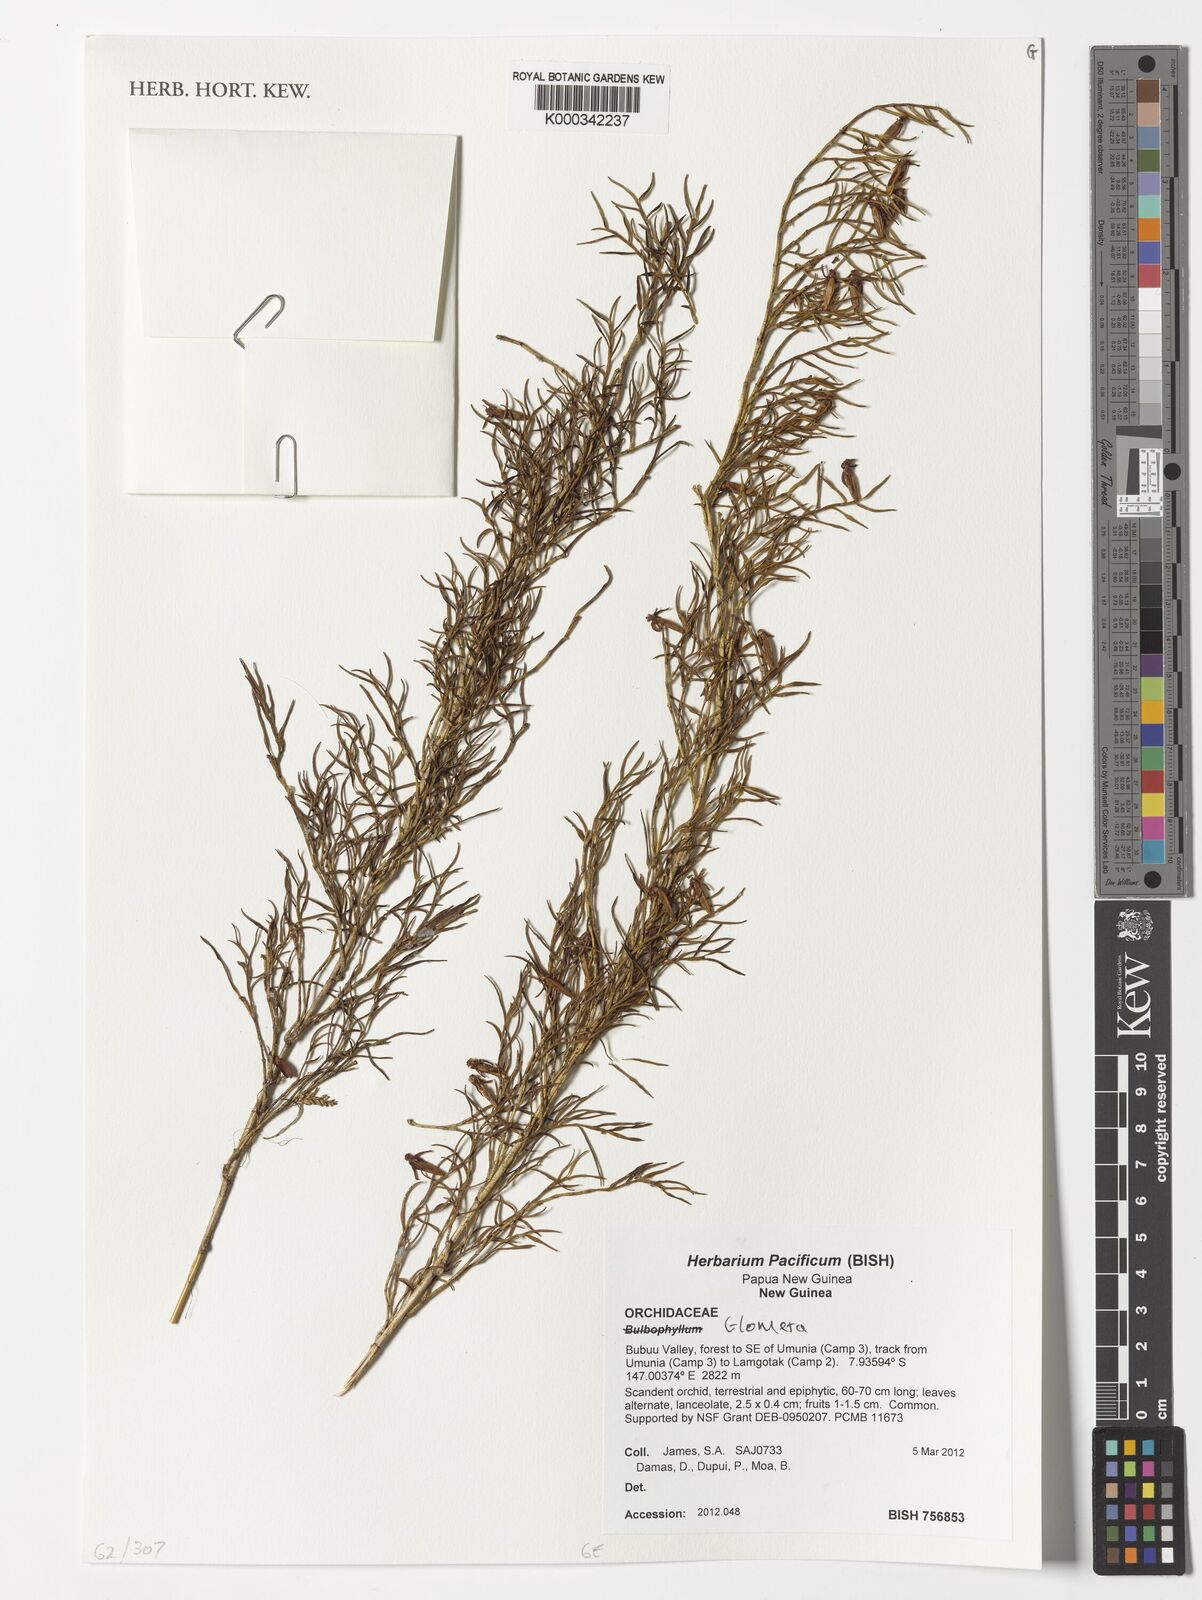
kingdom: Plantae
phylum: Tracheophyta
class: Liliopsida
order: Asparagales
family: Orchidaceae
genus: Glomera
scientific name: Glomera
